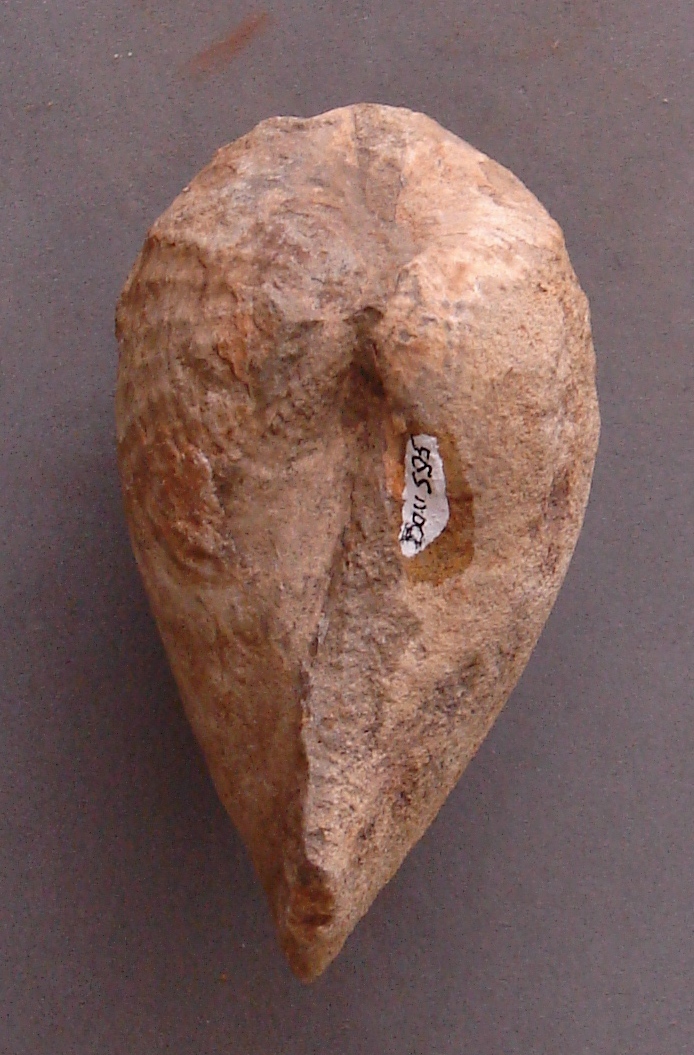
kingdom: Animalia
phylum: Mollusca
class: Bivalvia
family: Pholadomyidae
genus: Pholadomya
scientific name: Pholadomya fidicula
